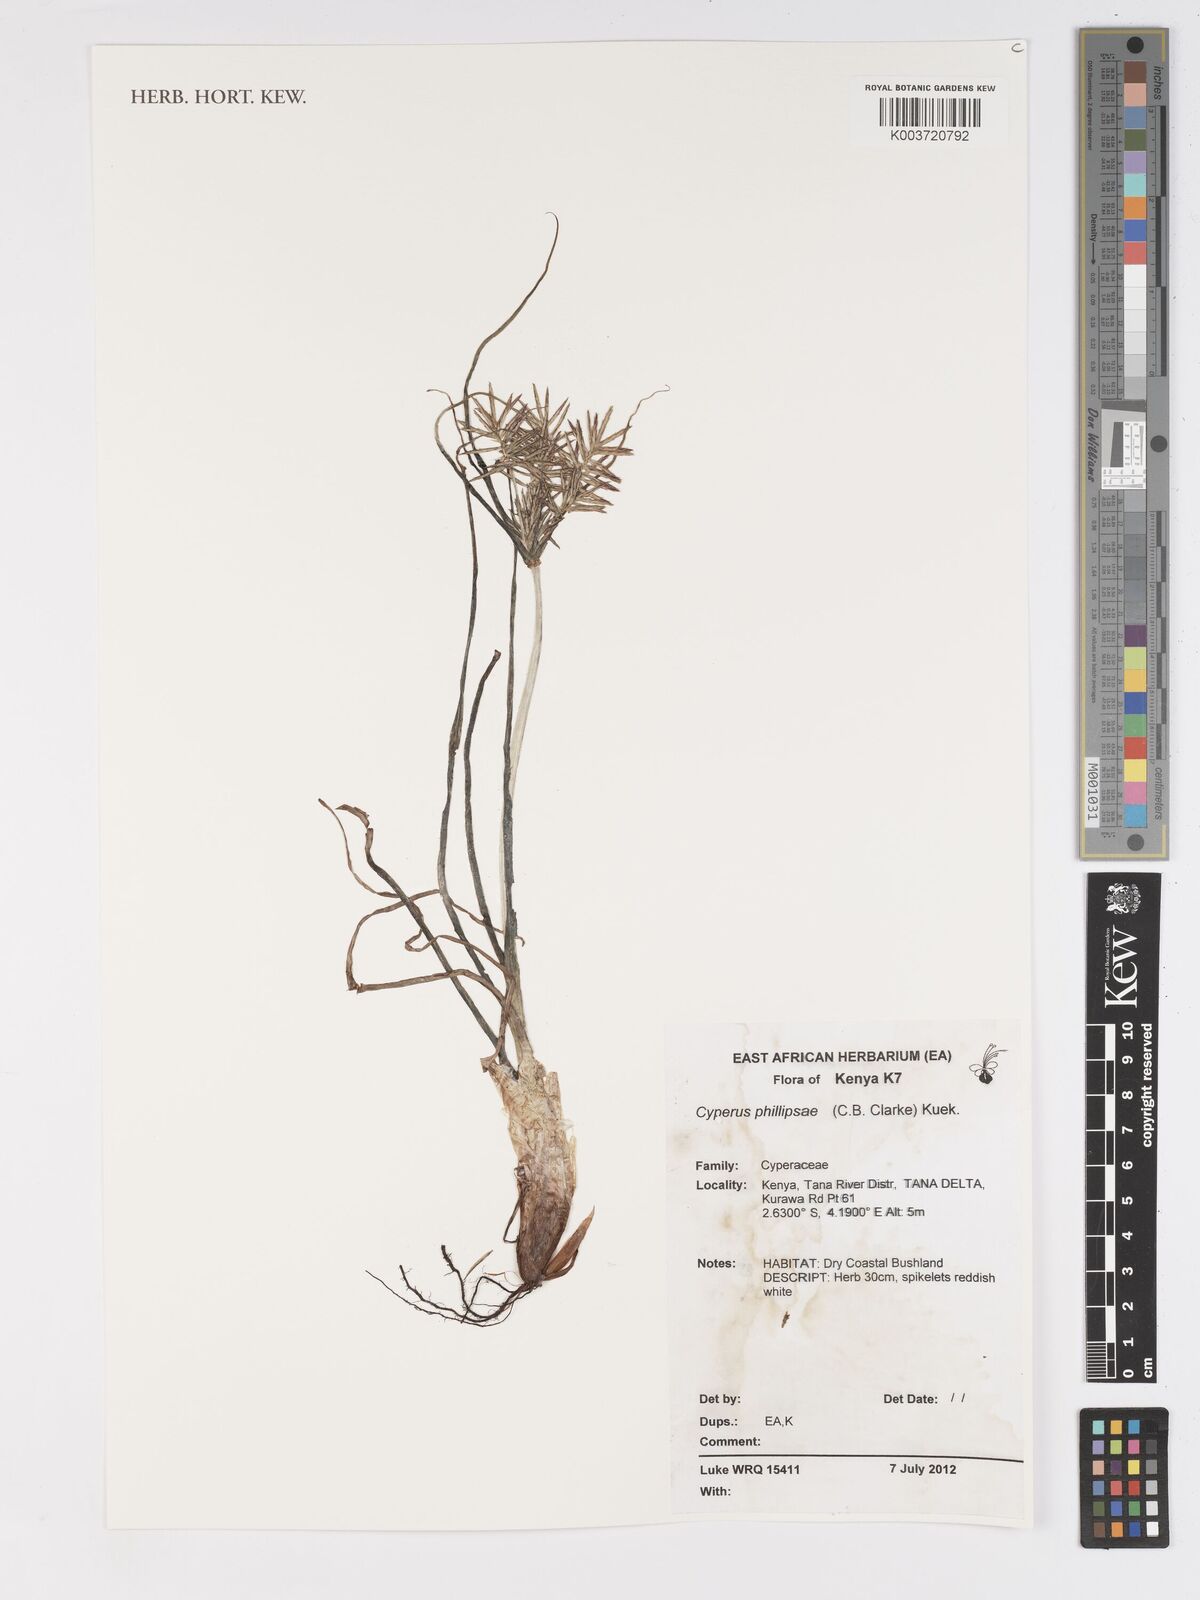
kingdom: Plantae
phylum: Tracheophyta
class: Liliopsida
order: Poales
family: Cyperaceae
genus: Cyperus
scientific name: Cyperus phillipsiae
